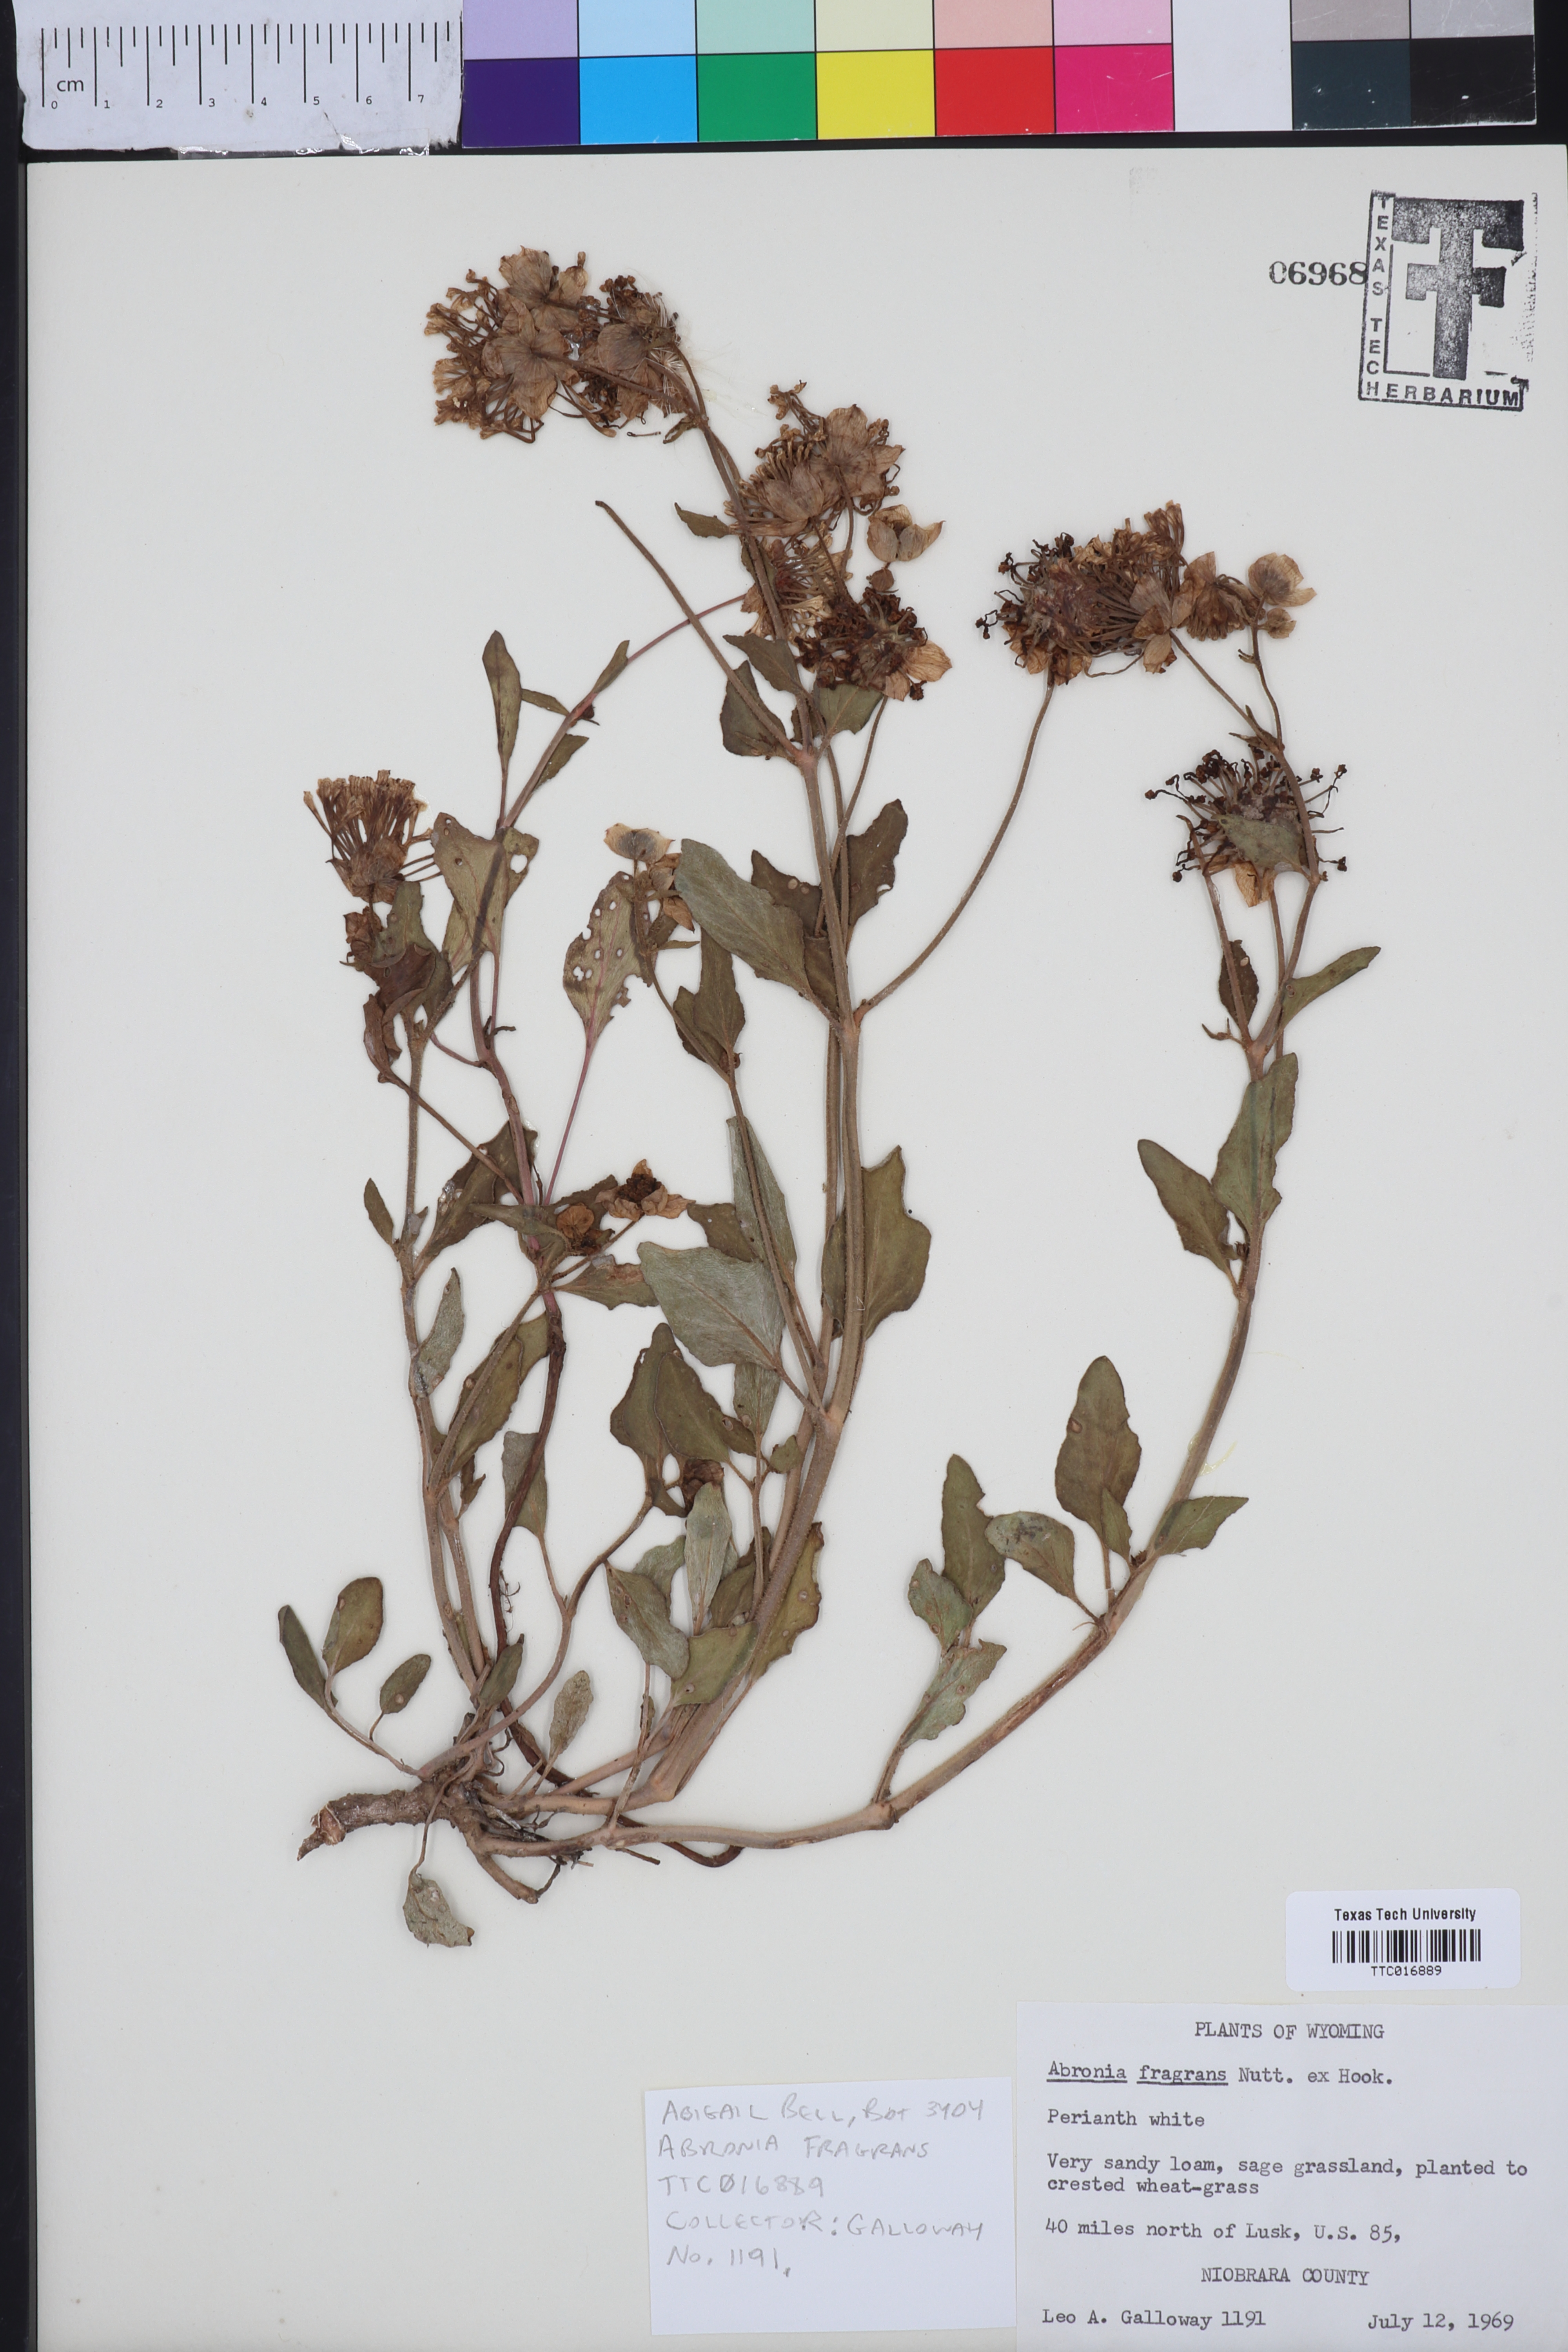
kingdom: Plantae
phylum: Tracheophyta
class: Magnoliopsida
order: Caryophyllales
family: Nyctaginaceae
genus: Abronia
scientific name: Abronia fragrans
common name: Fragrant sand-verbena
